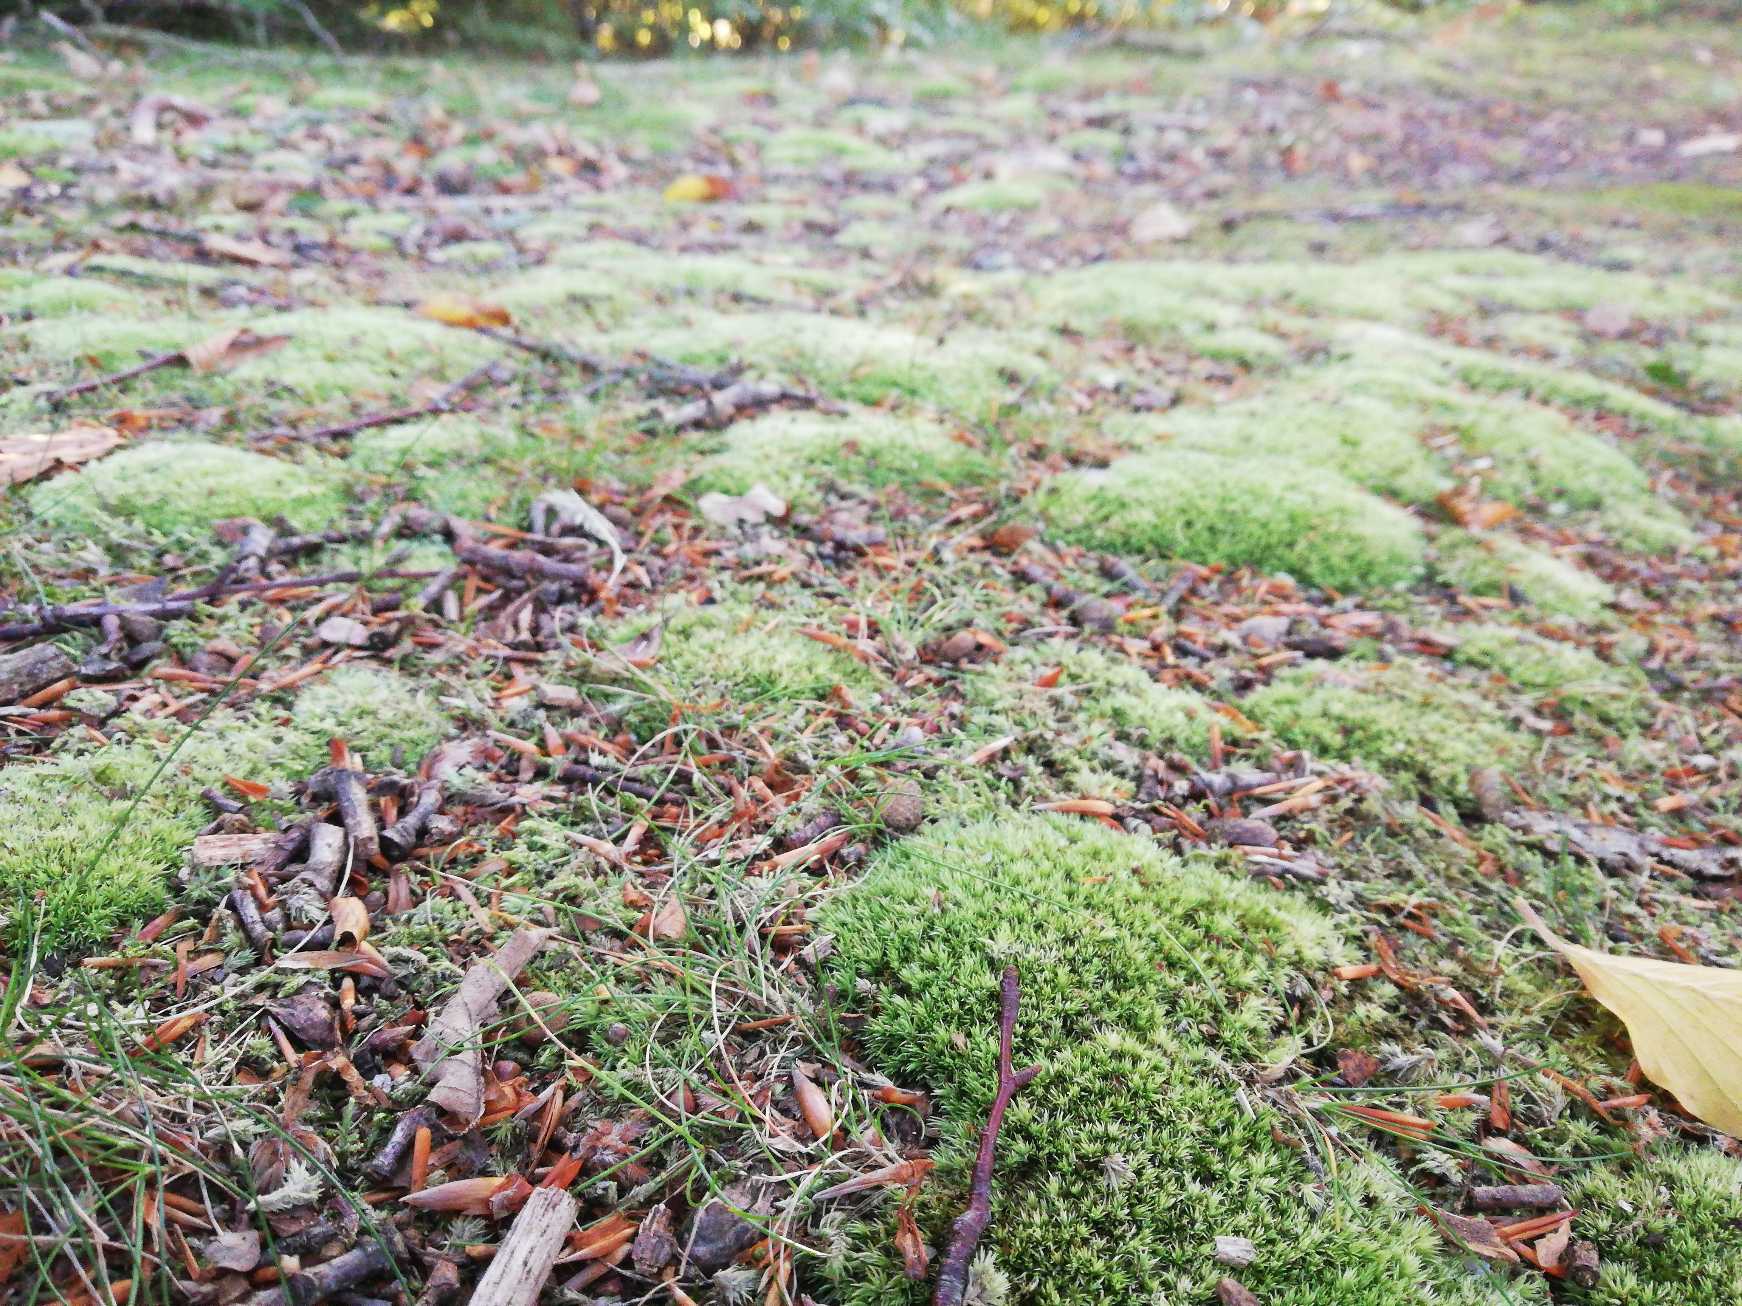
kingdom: Plantae
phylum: Bryophyta
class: Bryopsida
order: Dicranales
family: Leucobryaceae
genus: Leucobryum
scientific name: Leucobryum glaucum
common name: Almindelig hvidmos
